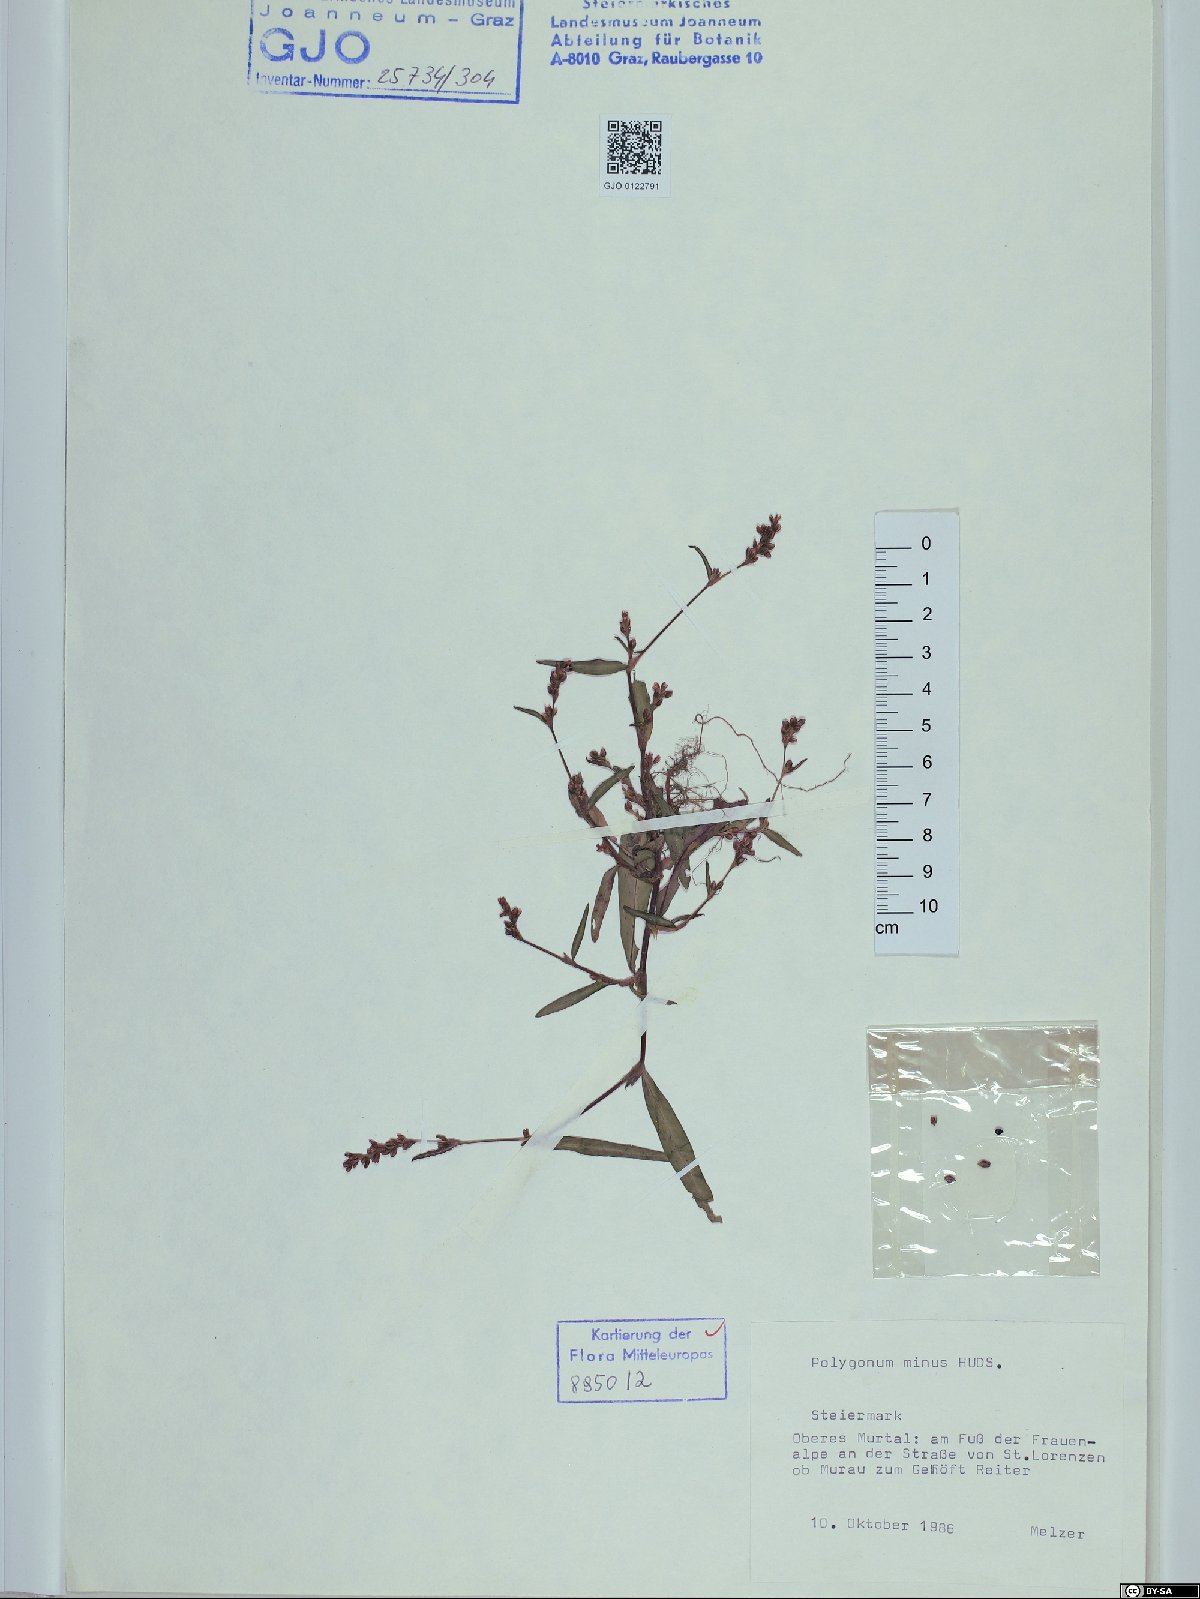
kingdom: Plantae
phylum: Tracheophyta
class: Magnoliopsida
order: Caryophyllales
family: Polygonaceae
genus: Persicaria
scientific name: Persicaria minor
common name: Small water-pepper
